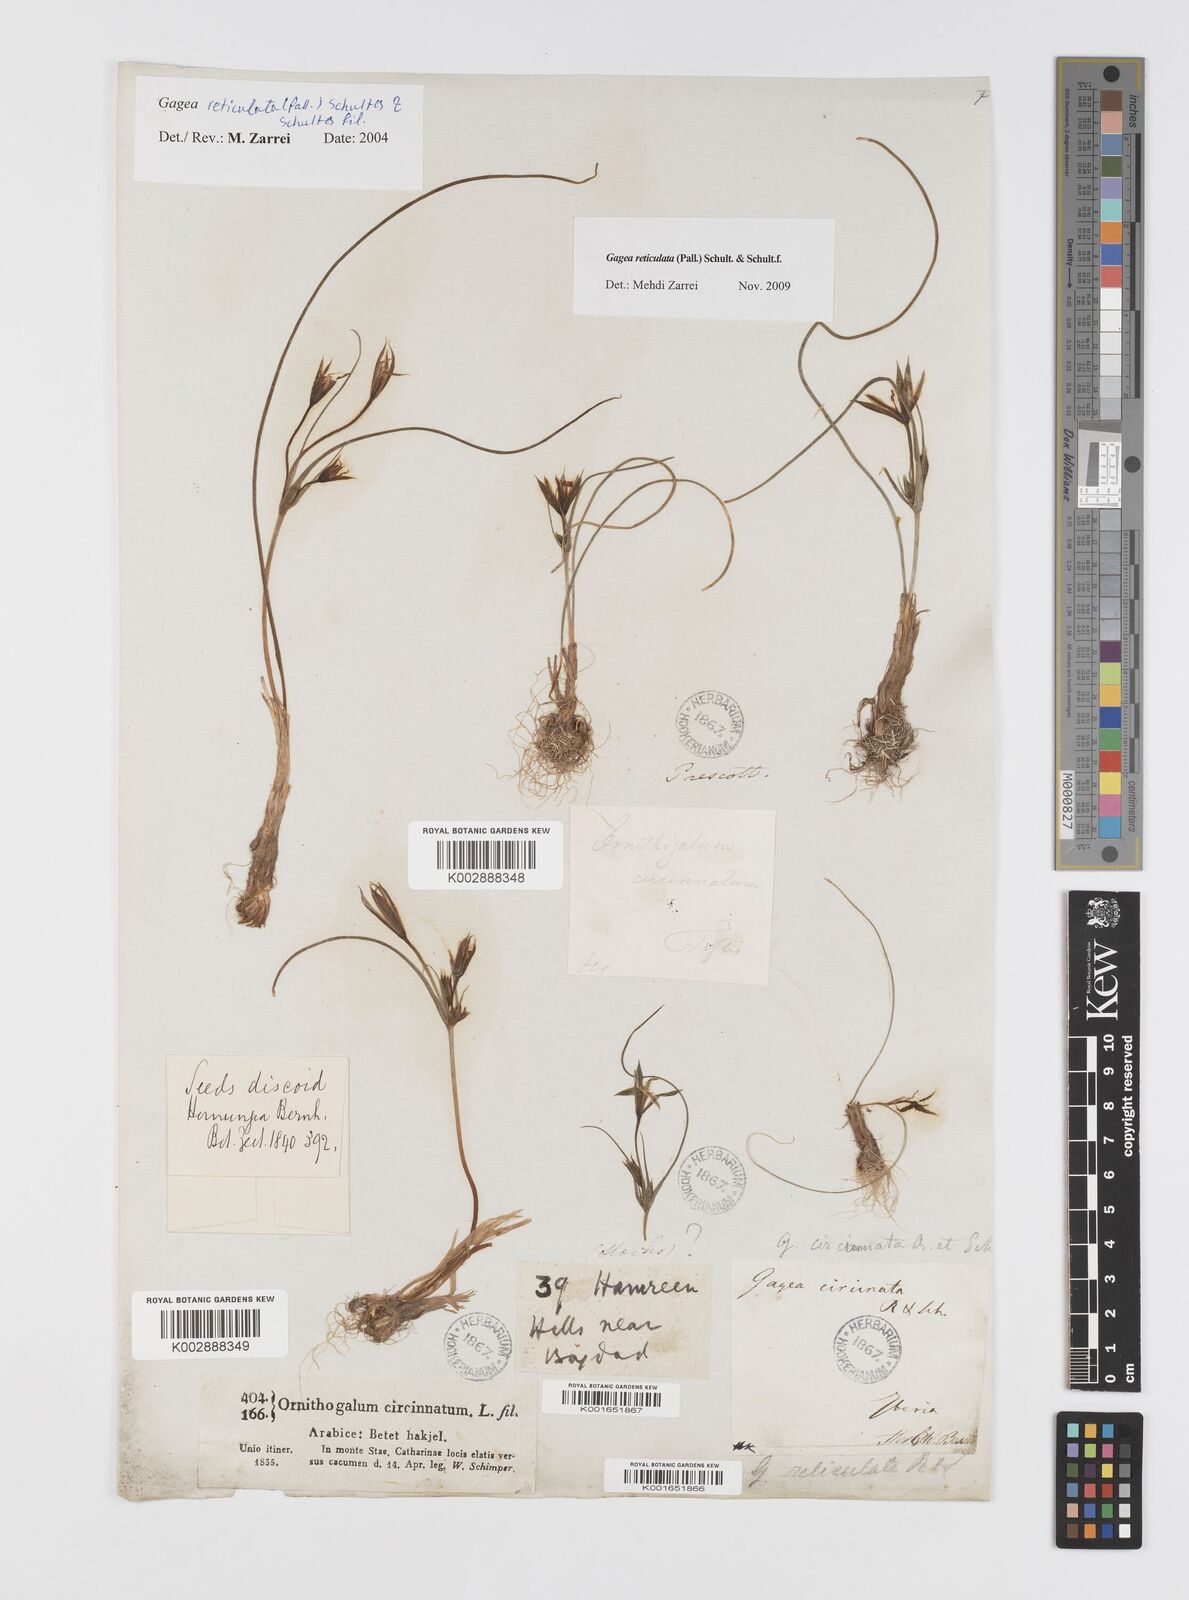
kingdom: Plantae
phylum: Tracheophyta
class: Liliopsida
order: Liliales
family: Liliaceae
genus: Gagea
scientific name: Gagea reticulata
